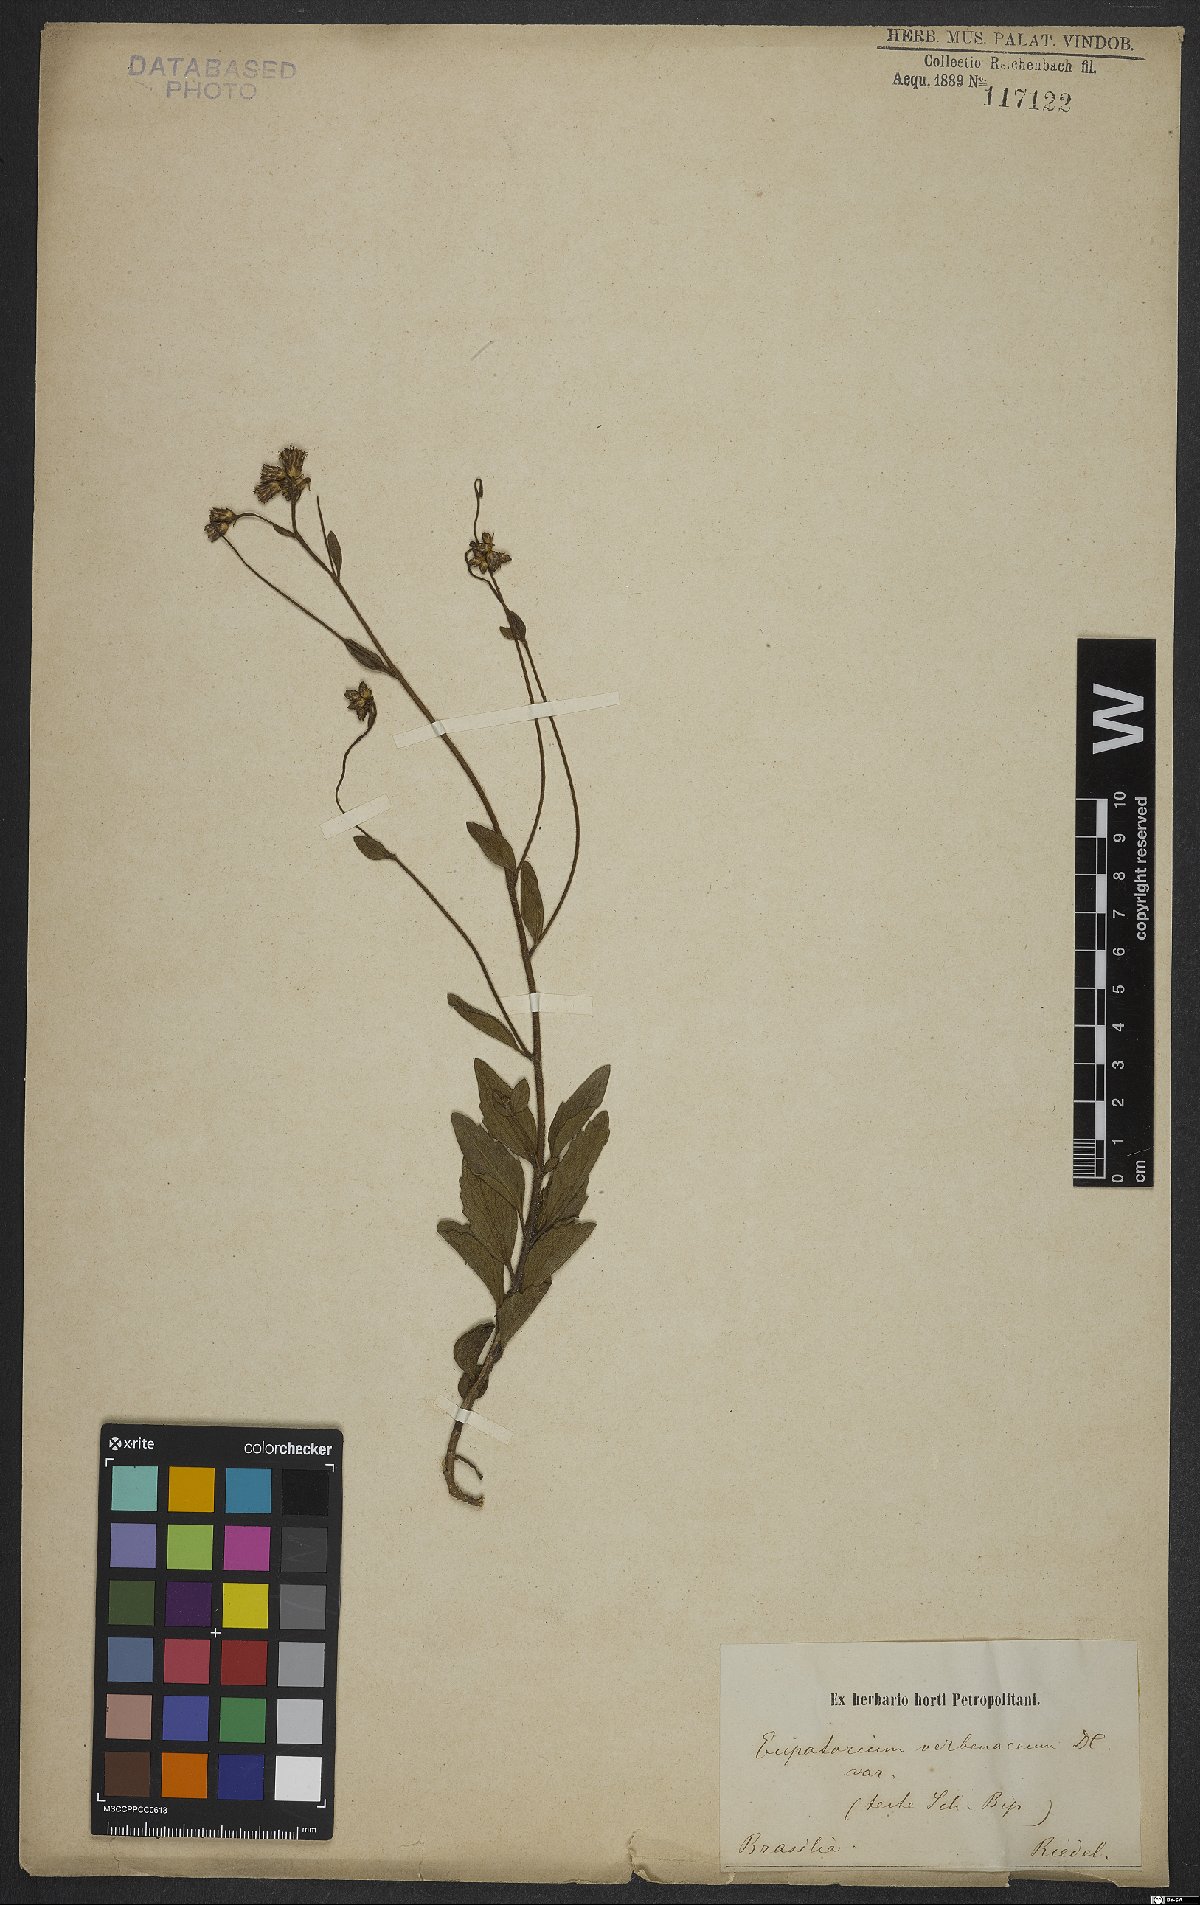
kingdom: Plantae
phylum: Tracheophyta
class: Magnoliopsida
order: Asterales
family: Asteraceae
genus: Chromolaena
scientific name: Chromolaena verbenacea
